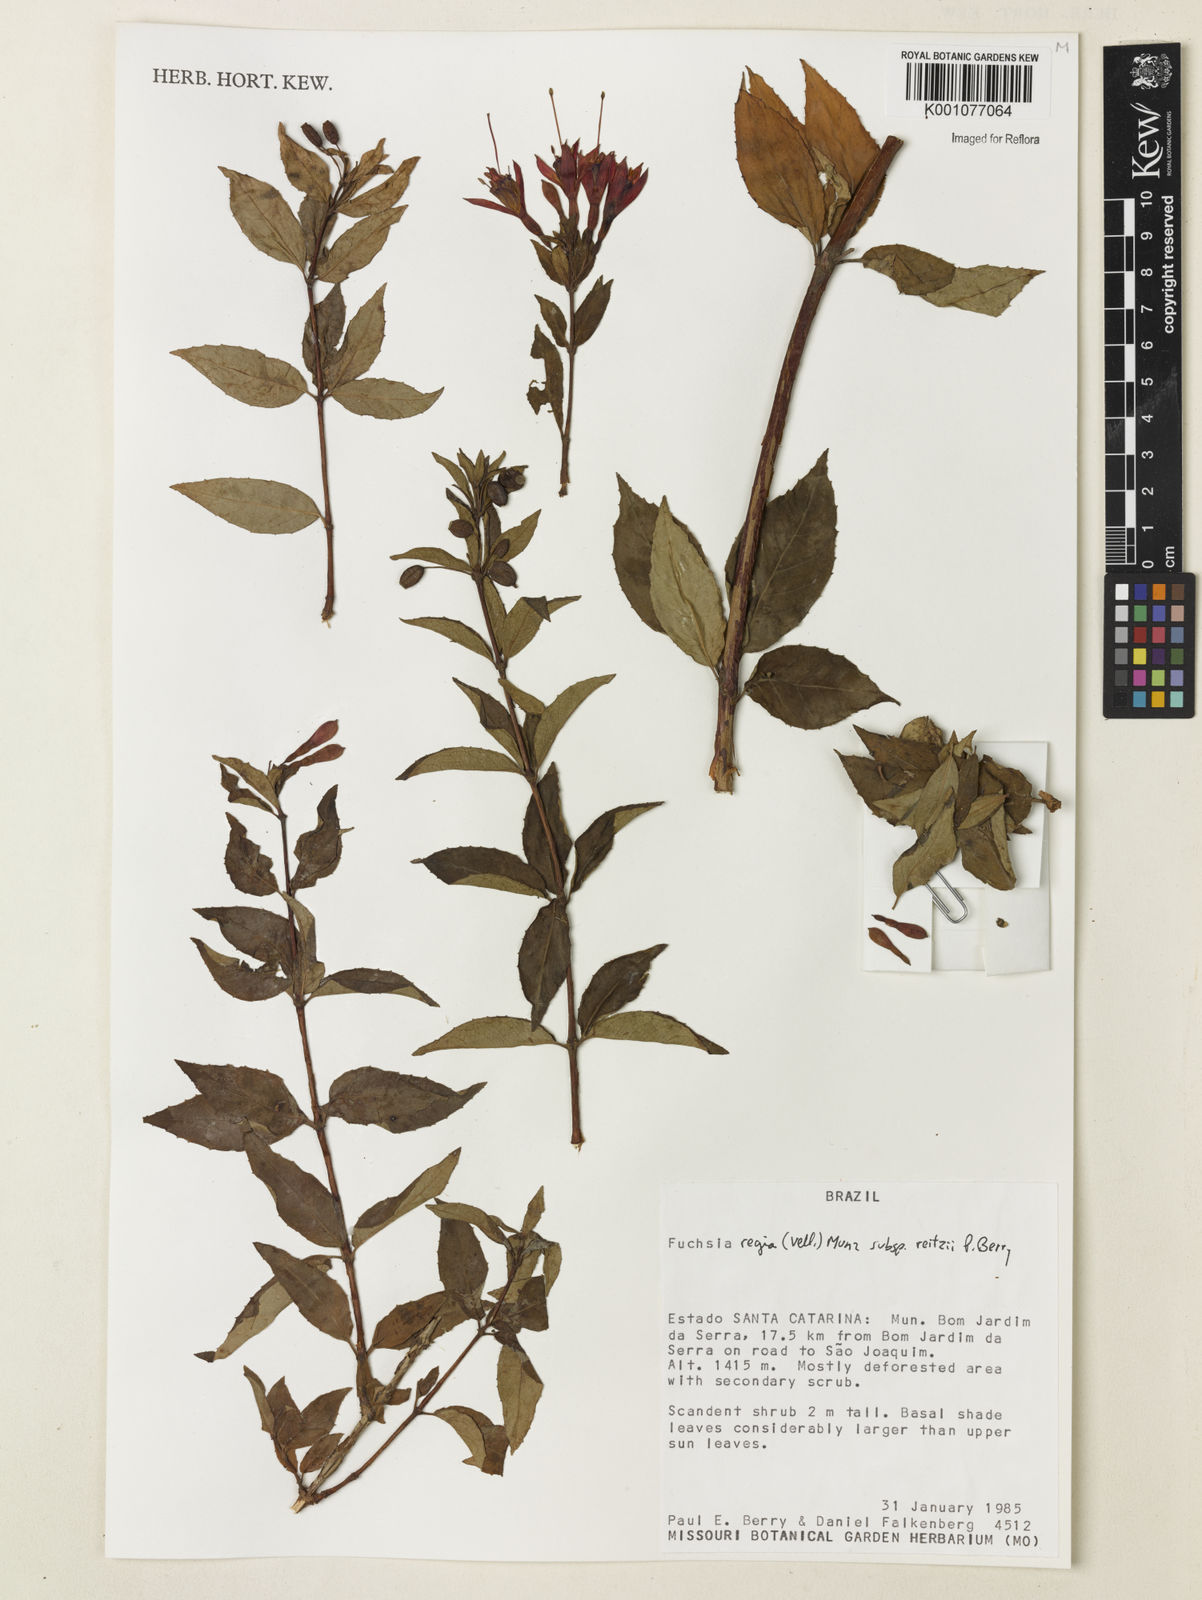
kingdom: Plantae
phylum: Tracheophyta
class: Magnoliopsida
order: Myrtales
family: Onagraceae
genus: Fuchsia
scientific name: Fuchsia regia
